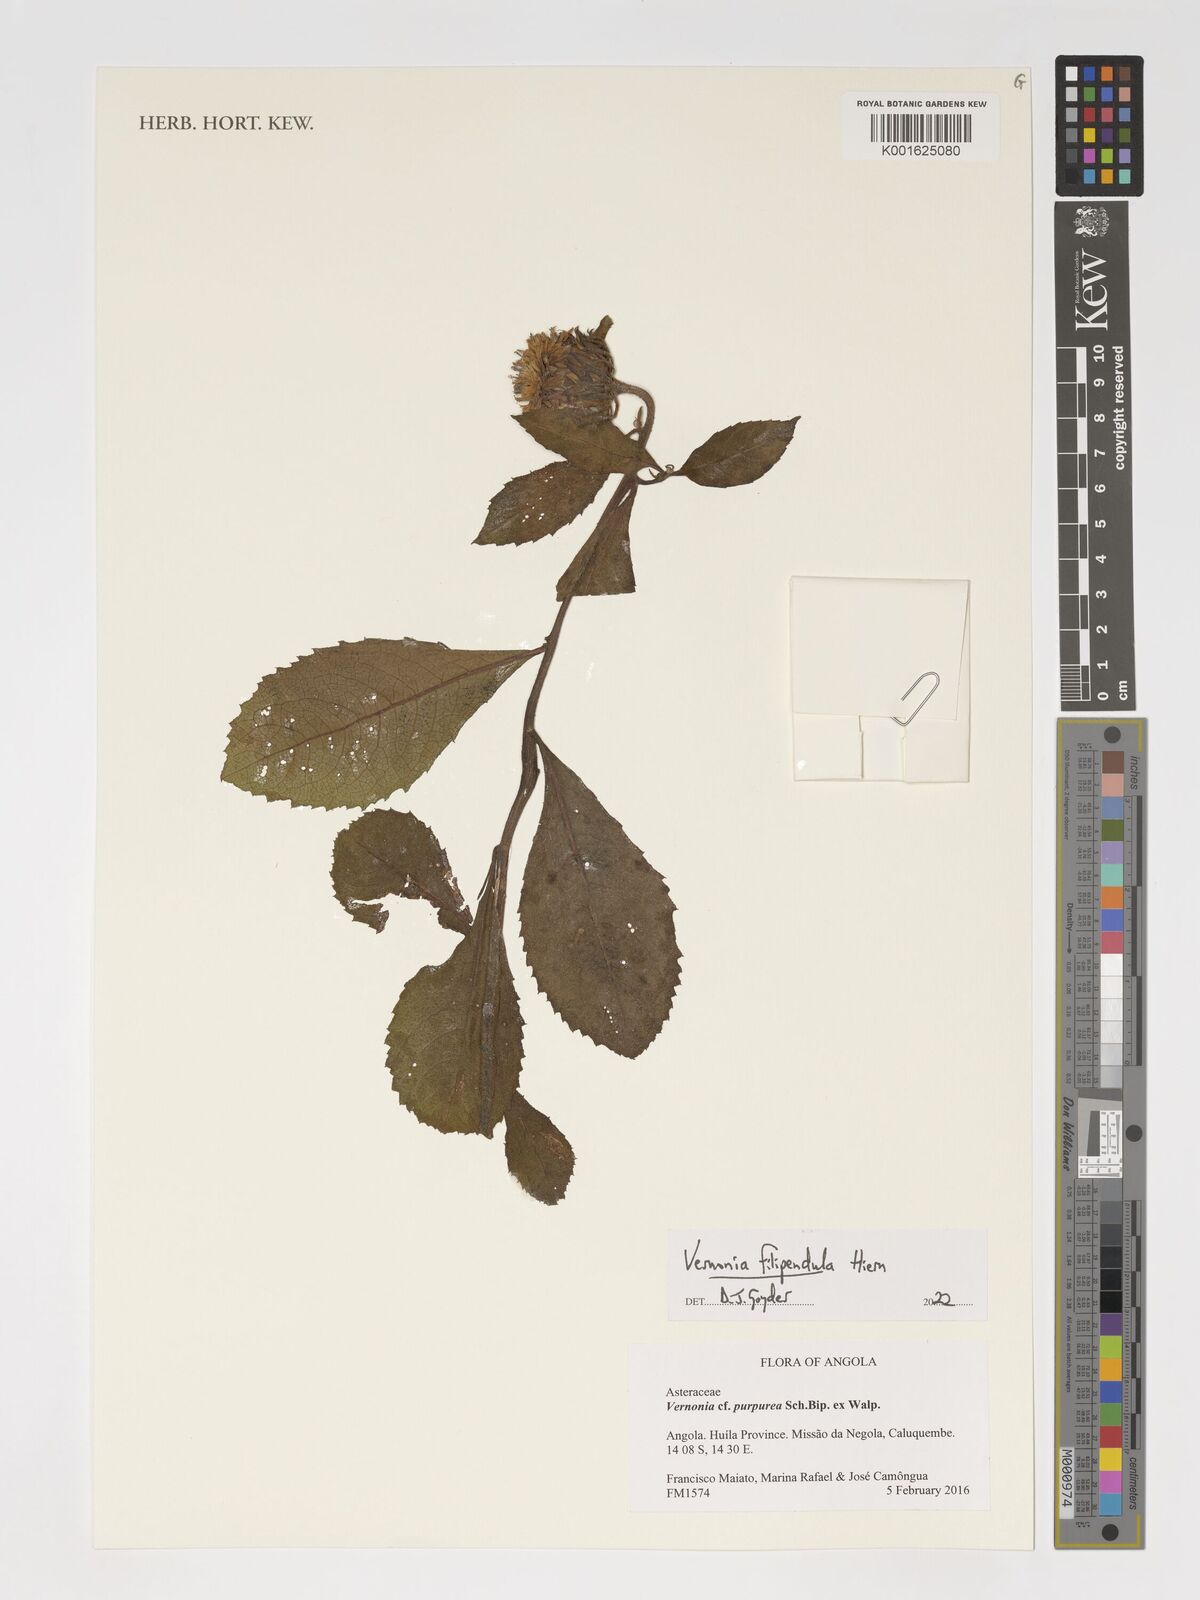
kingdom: Plantae
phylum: Tracheophyta
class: Magnoliopsida
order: Asterales
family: Asteraceae
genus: Baccharoides
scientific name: Baccharoides filipendula
